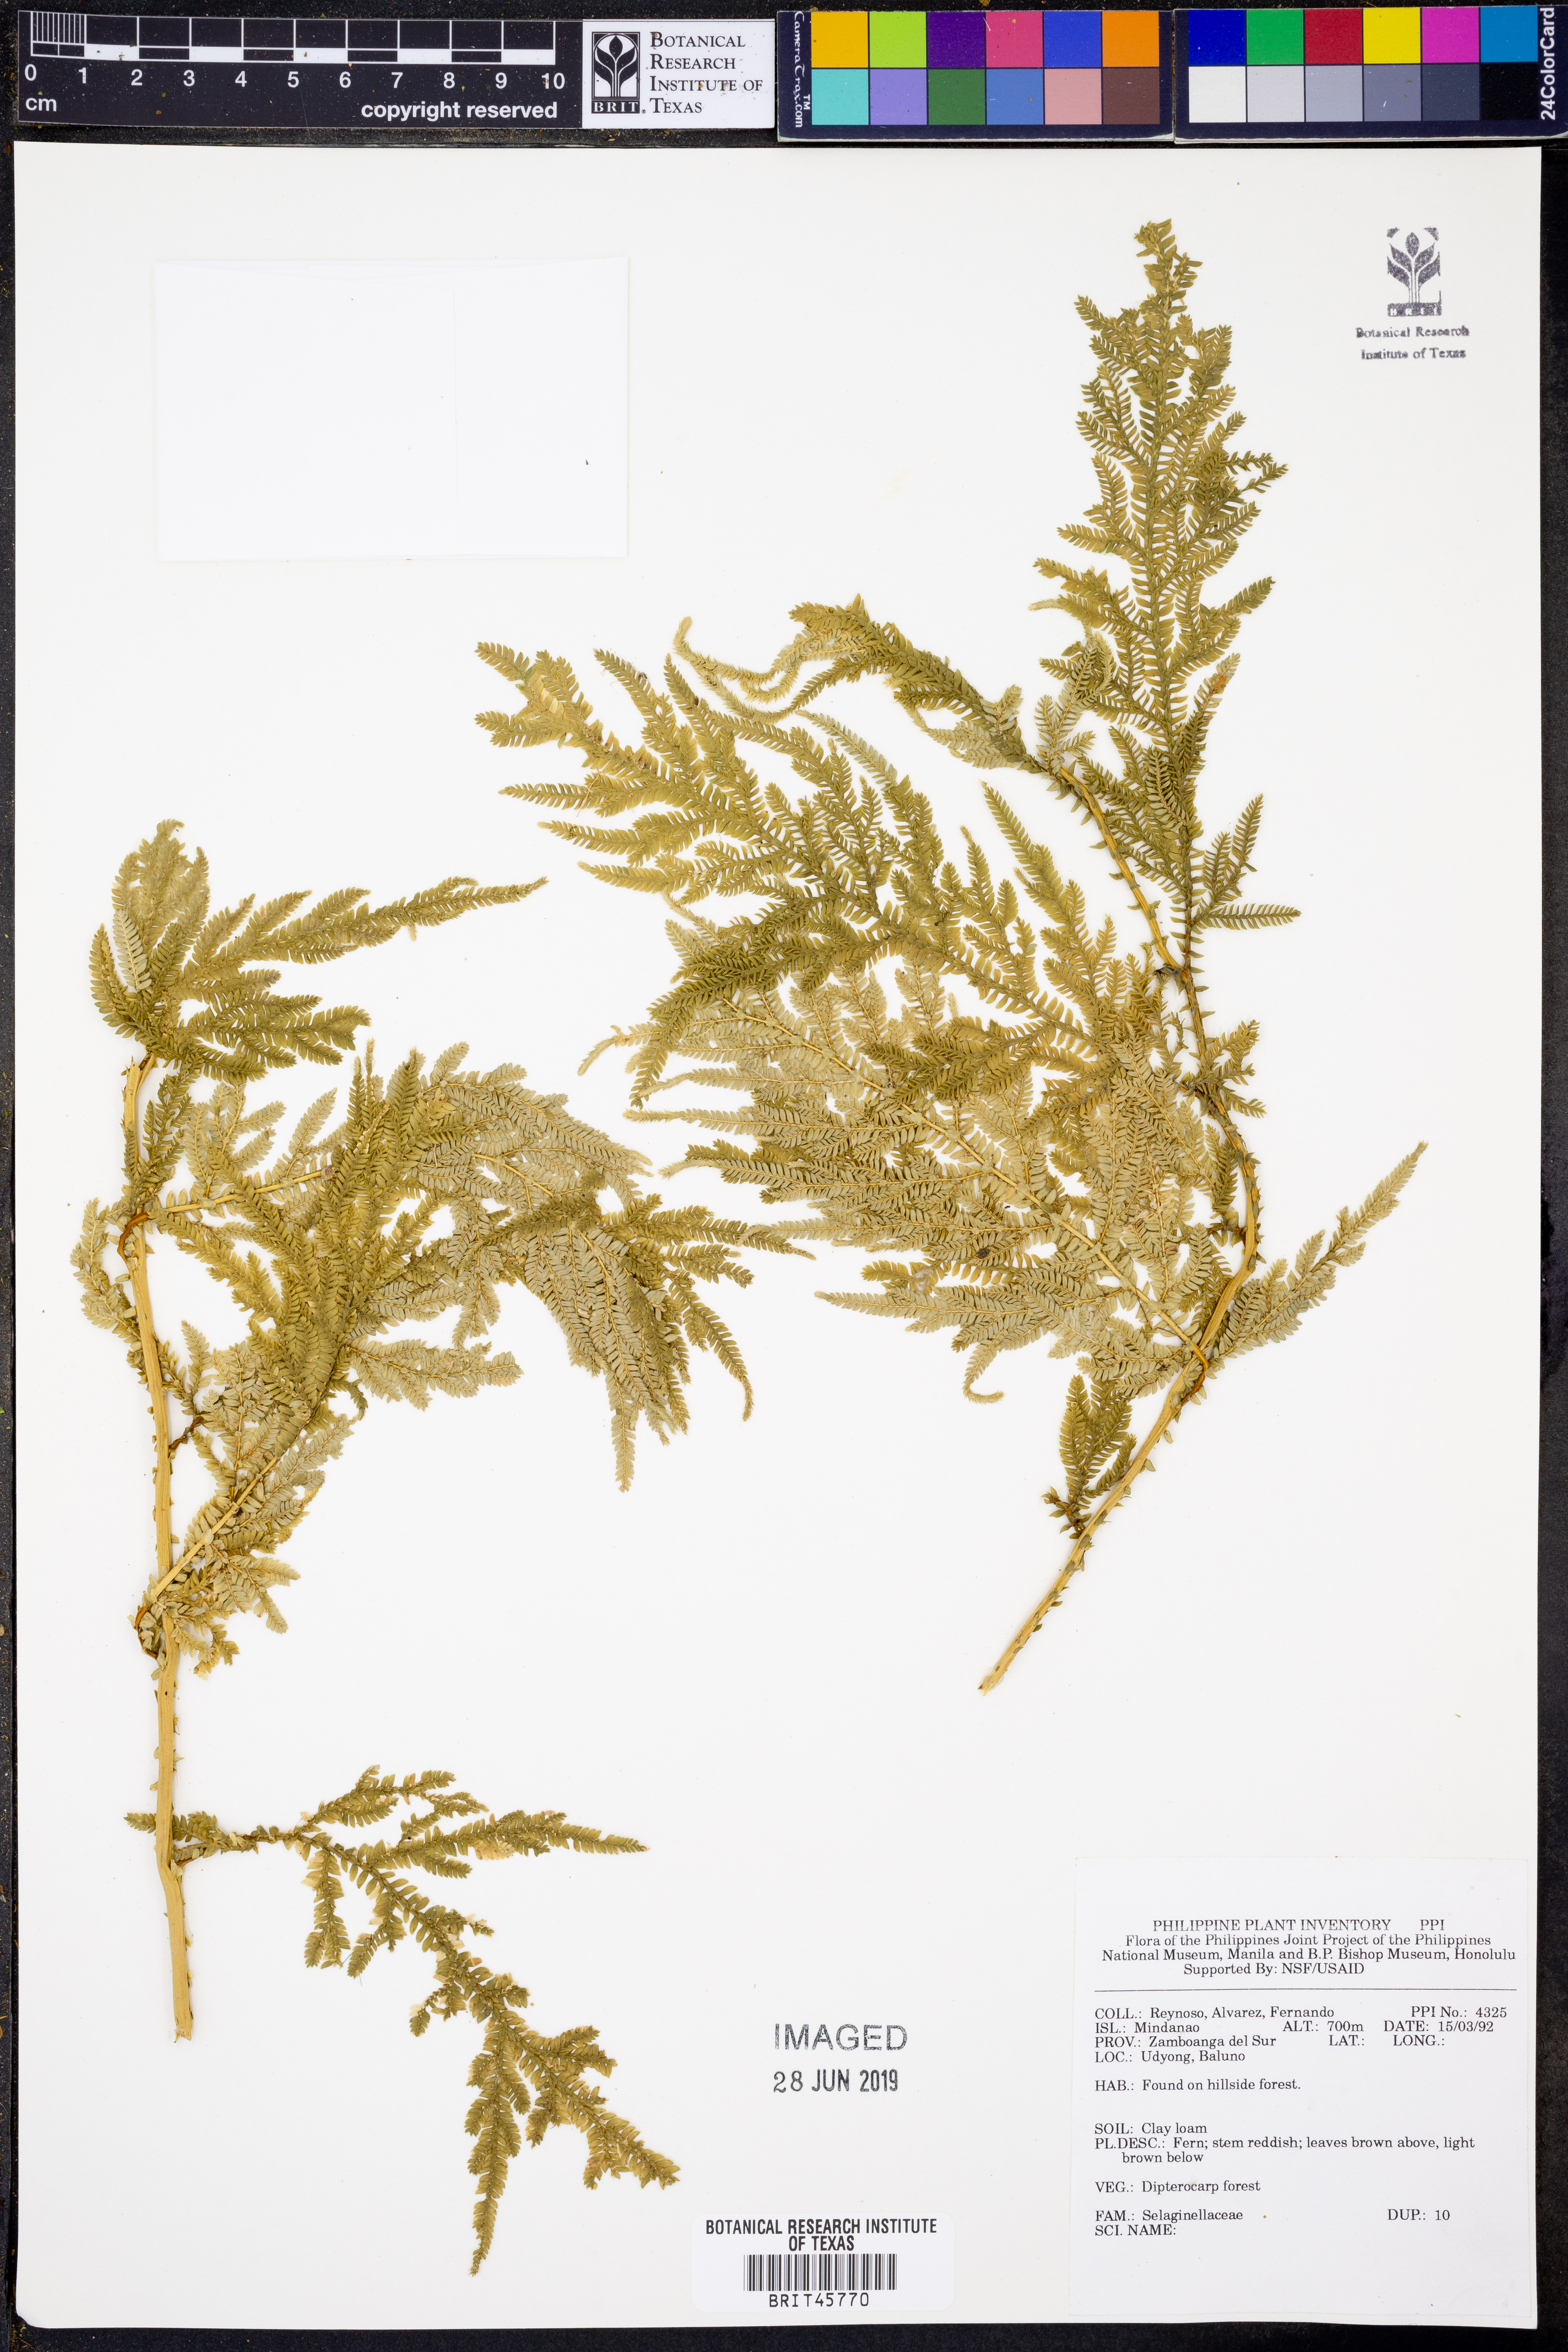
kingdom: Plantae
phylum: Tracheophyta
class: Lycopodiopsida
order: Selaginellales
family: Selaginellaceae
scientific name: Selaginellaceae
